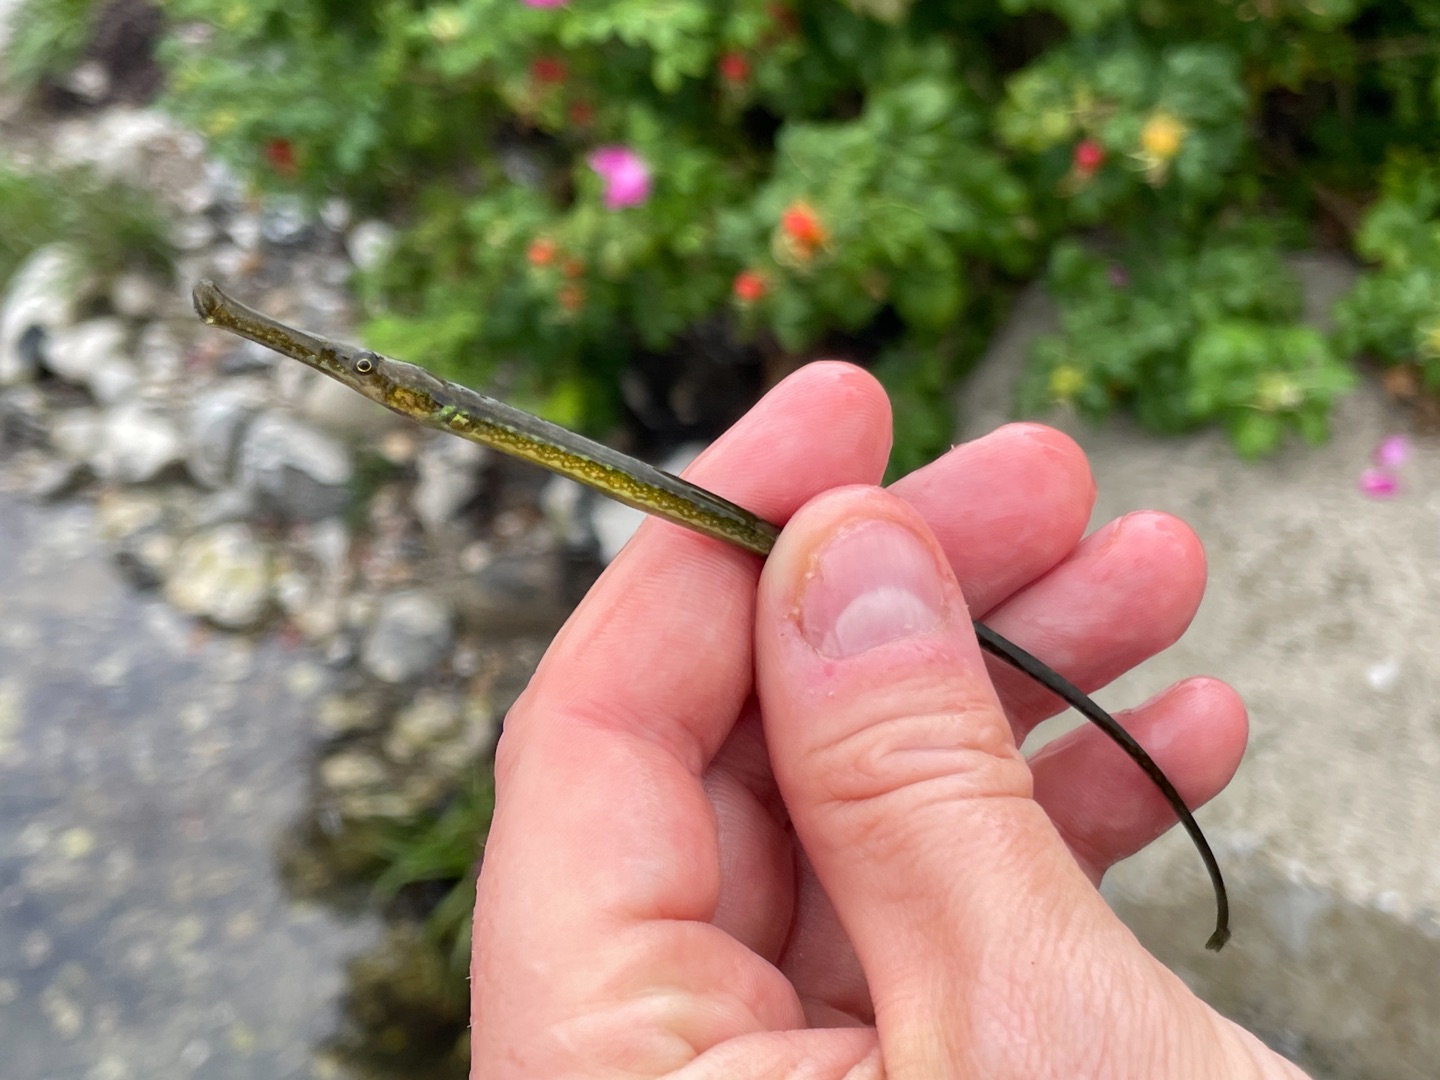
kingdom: Animalia
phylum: Chordata
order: Syngnathiformes
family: Syngnathidae
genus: Syngnathus
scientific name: Syngnathus typhle
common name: Almindelig tangnål
